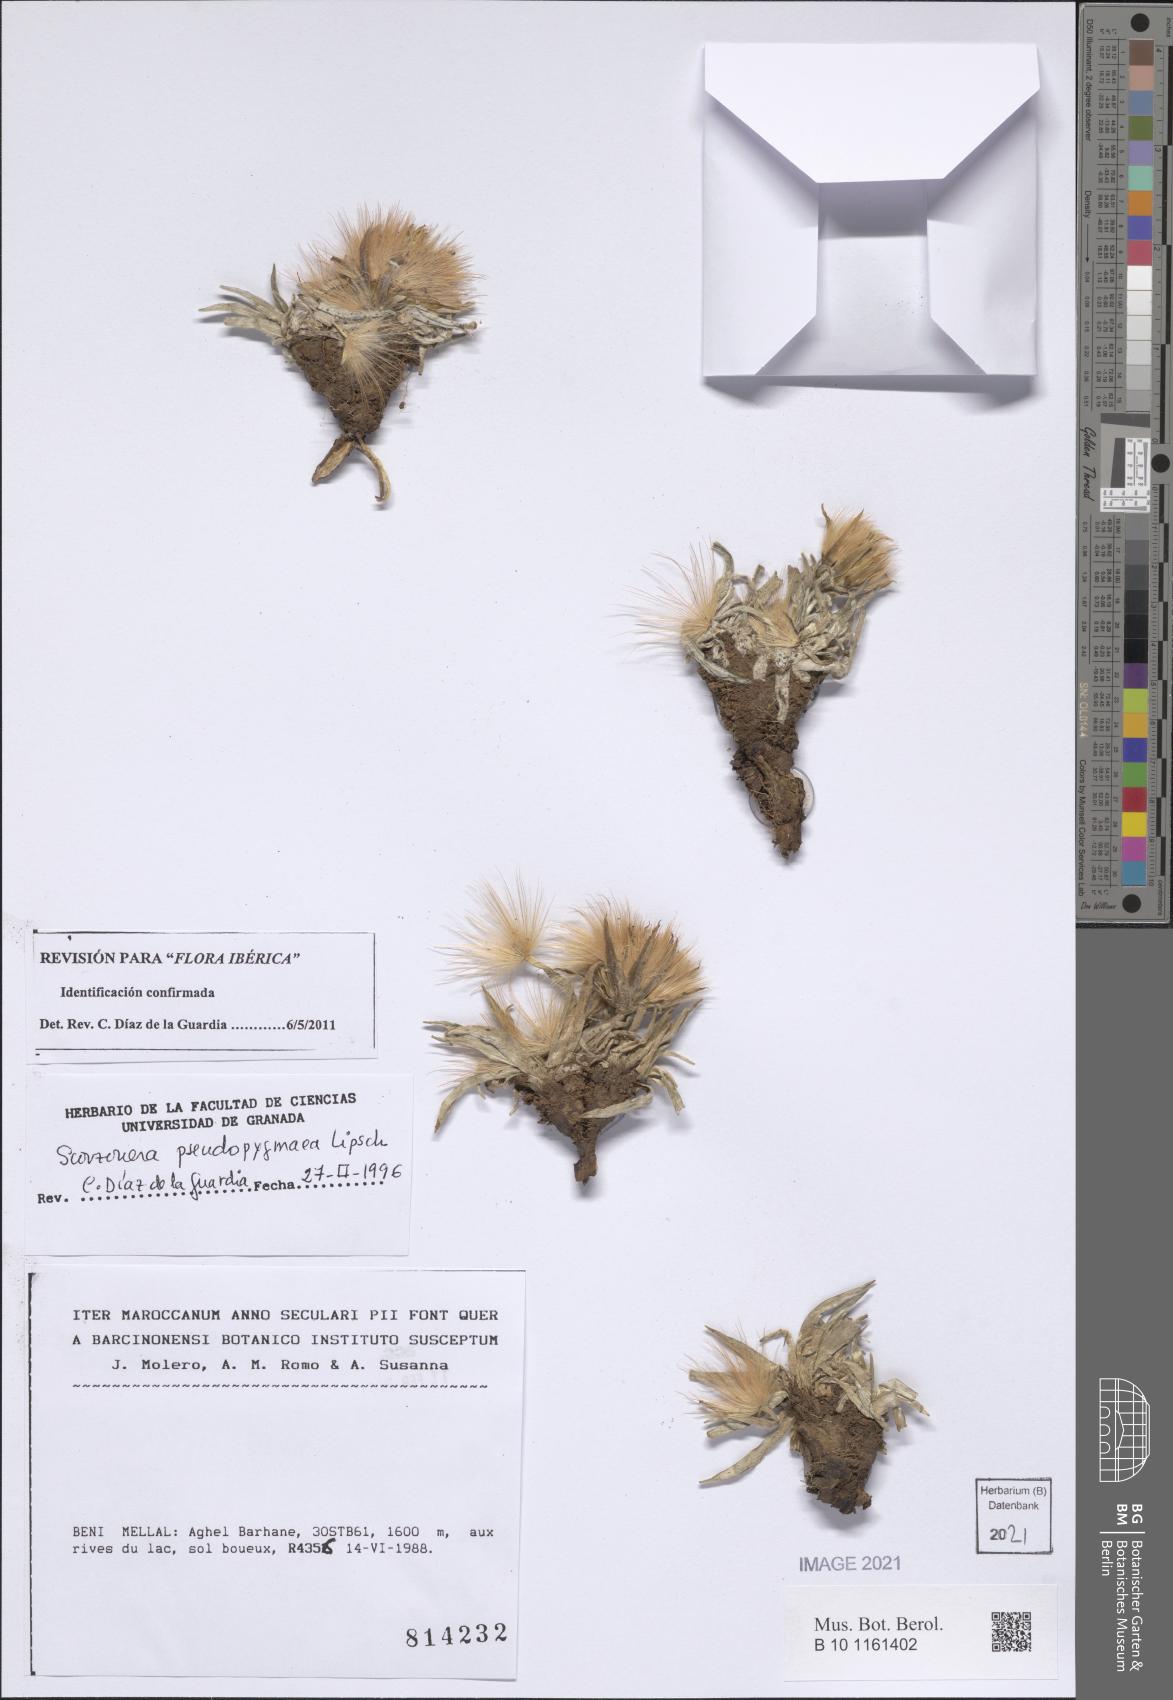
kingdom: Plantae
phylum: Tracheophyta
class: Magnoliopsida
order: Asterales
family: Asteraceae
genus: Gelasia
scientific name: Gelasia caespitosa
